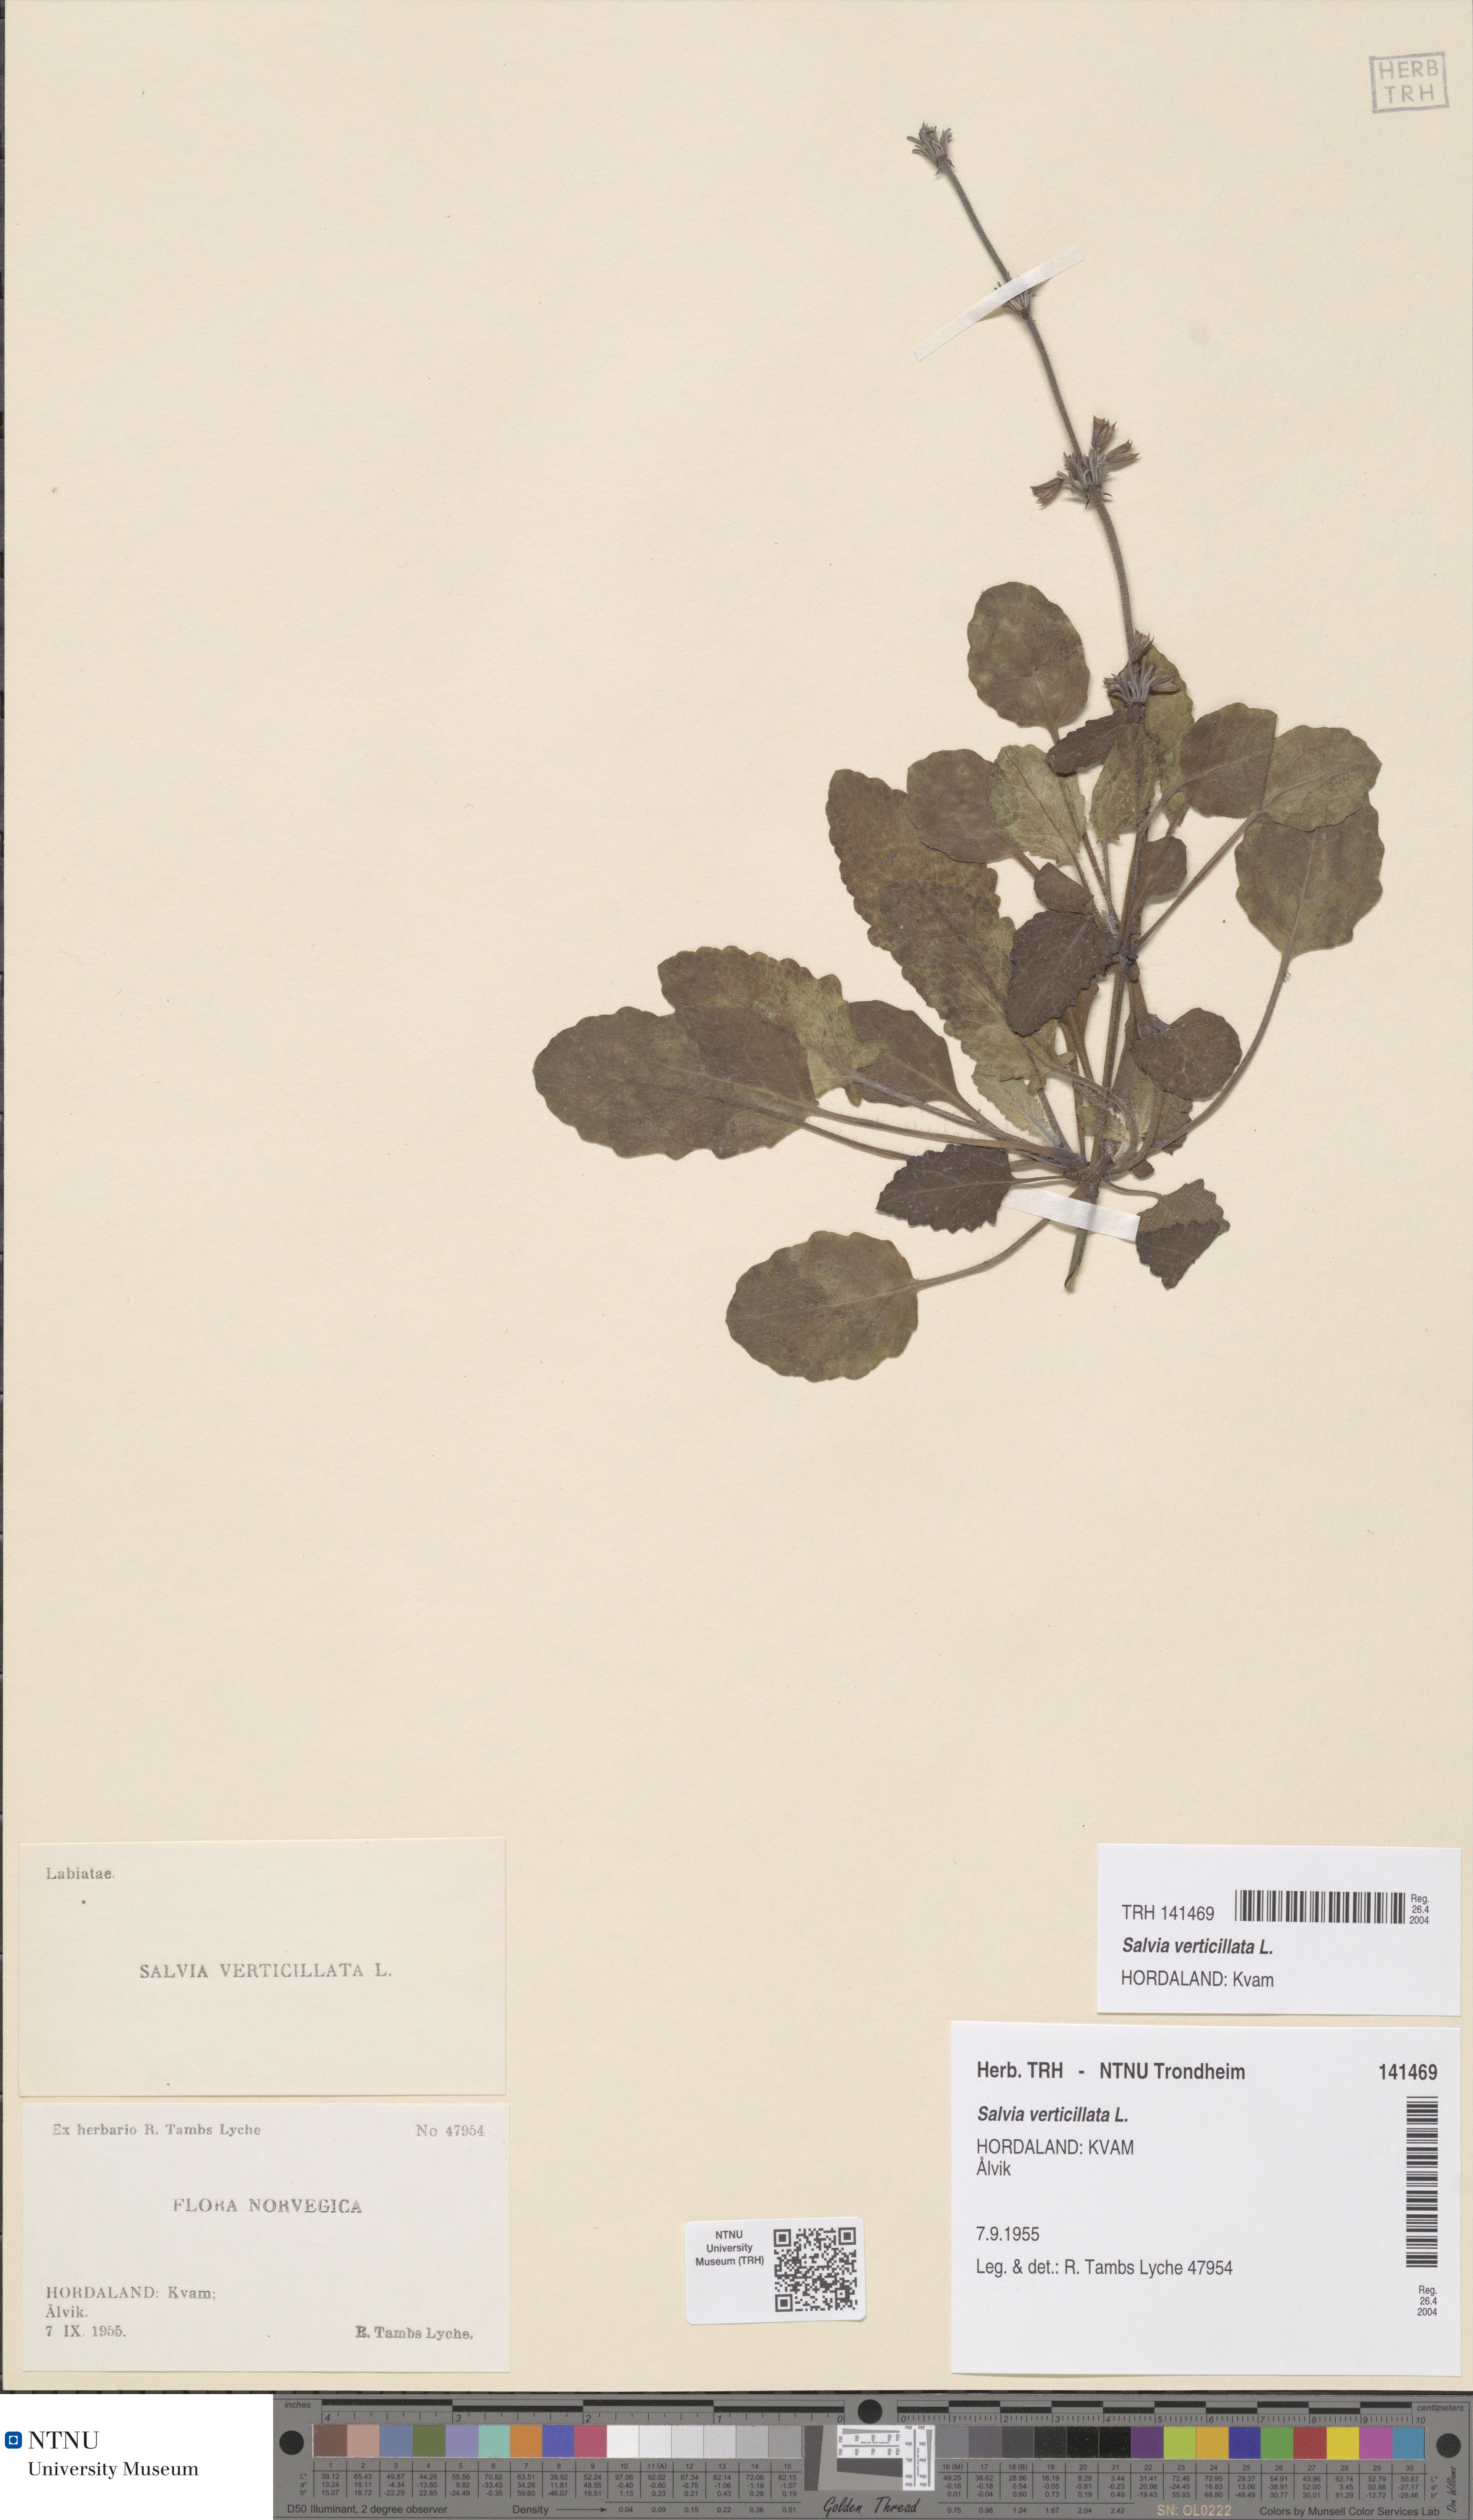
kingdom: Plantae
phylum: Tracheophyta
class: Magnoliopsida
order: Lamiales
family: Lamiaceae
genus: Salvia
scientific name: Salvia verticillata
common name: Whorled clary
